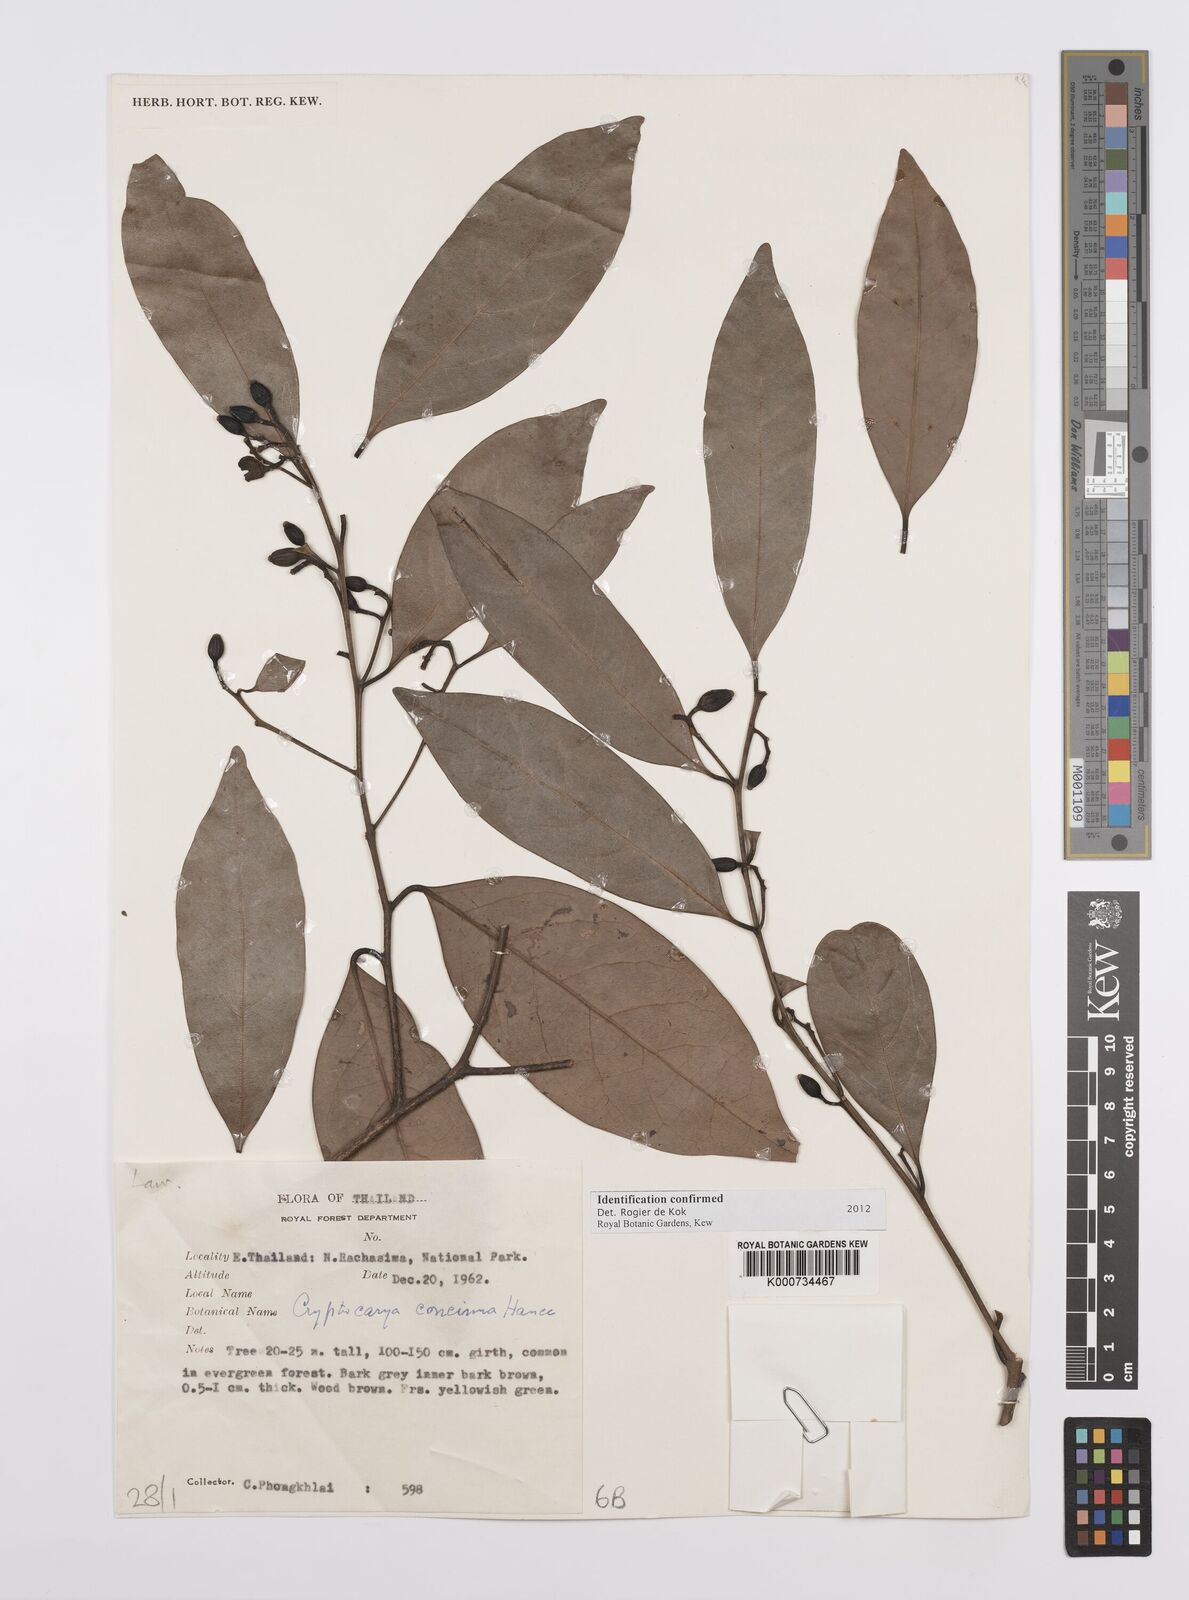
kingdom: Plantae
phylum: Tracheophyta
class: Magnoliopsida
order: Laurales
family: Lauraceae
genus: Cryptocarya
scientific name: Cryptocarya concinna
